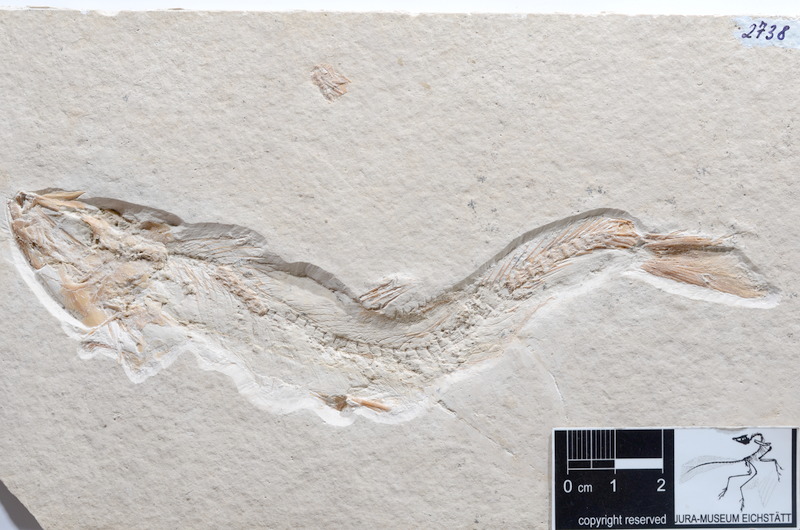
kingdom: Animalia
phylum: Chordata
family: Ascalaboidae
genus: Tharsis
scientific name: Tharsis dubius
